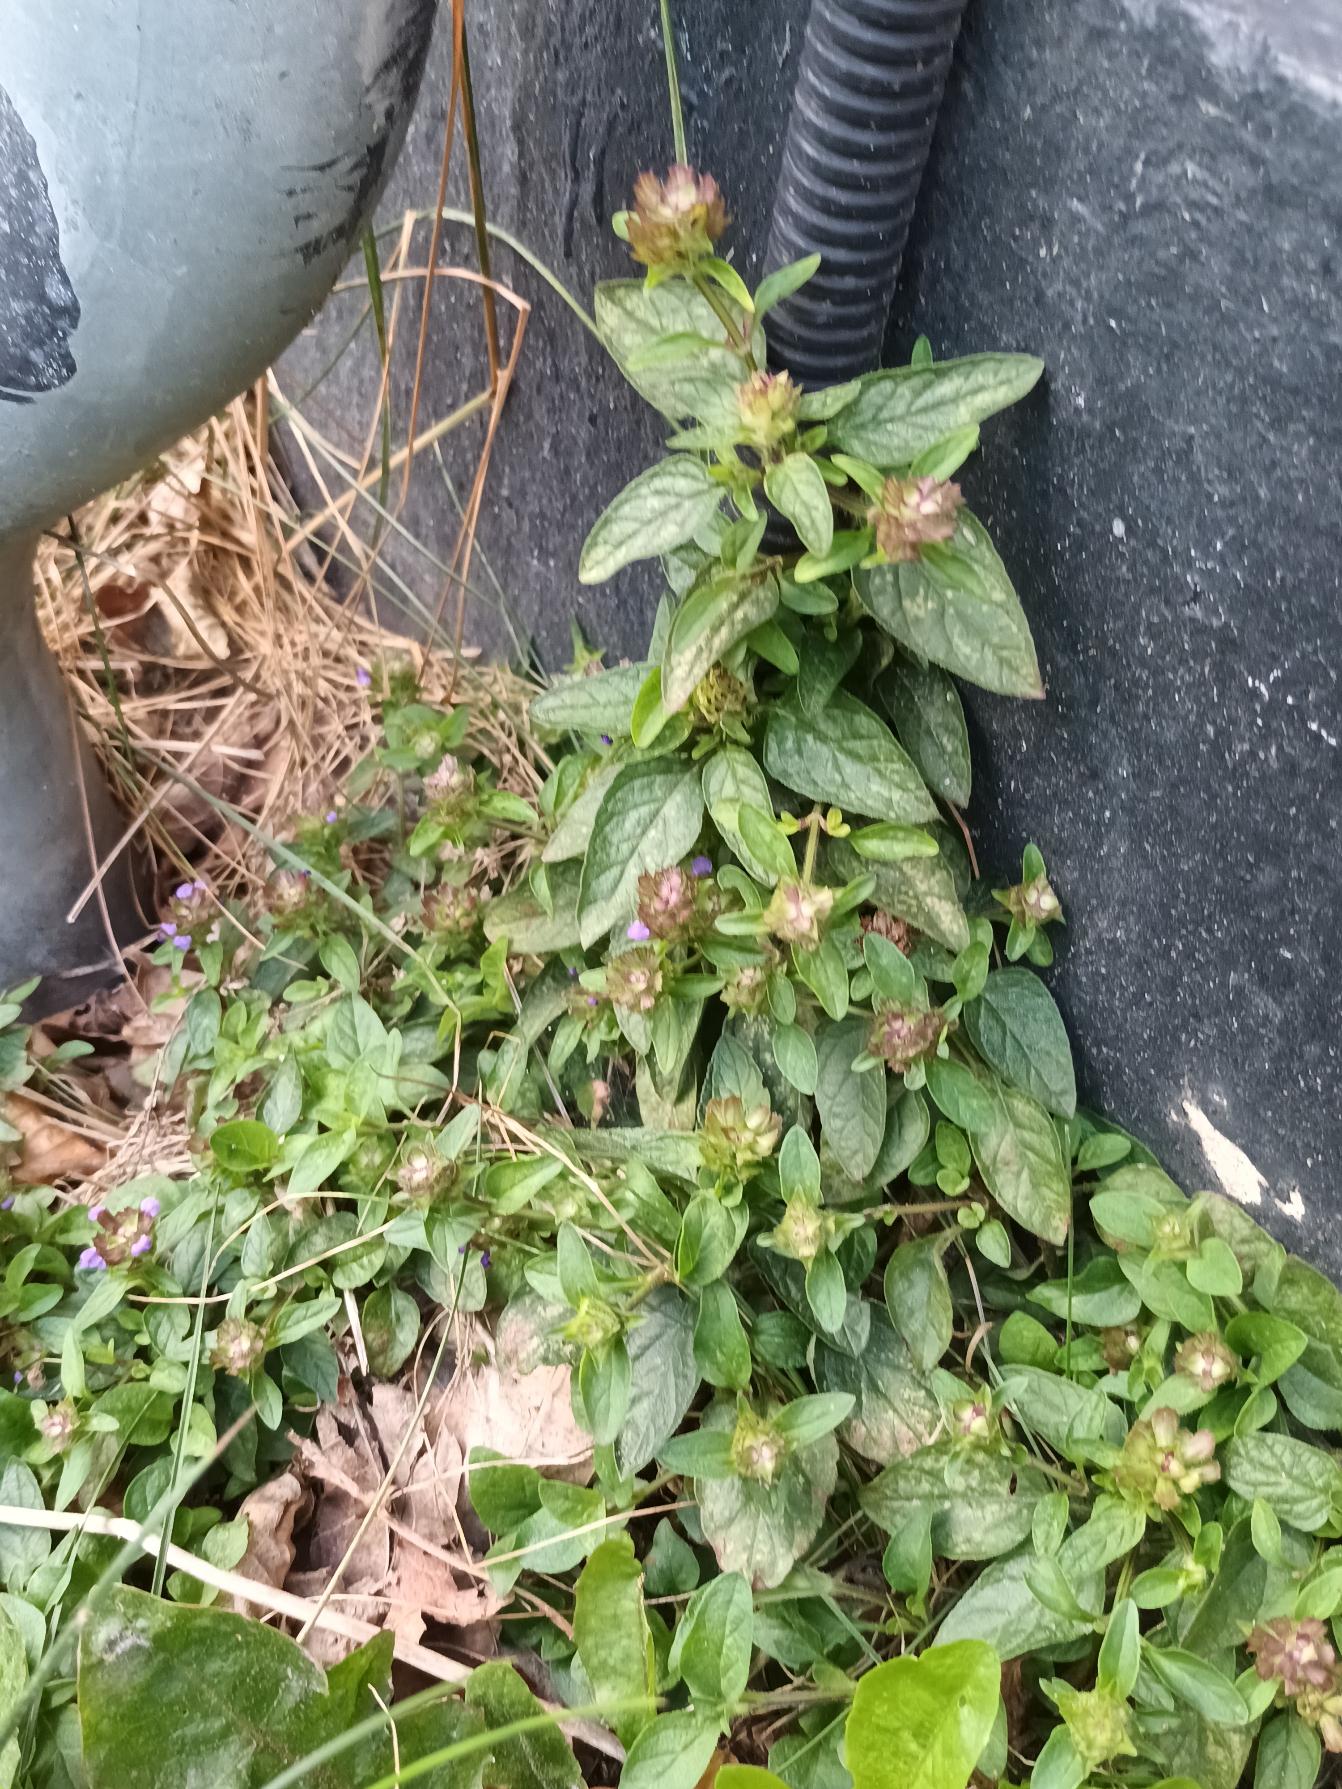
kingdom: Plantae
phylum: Tracheophyta
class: Magnoliopsida
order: Lamiales
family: Lamiaceae
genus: Prunella
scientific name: Prunella vulgaris
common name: Almindelig brunelle
